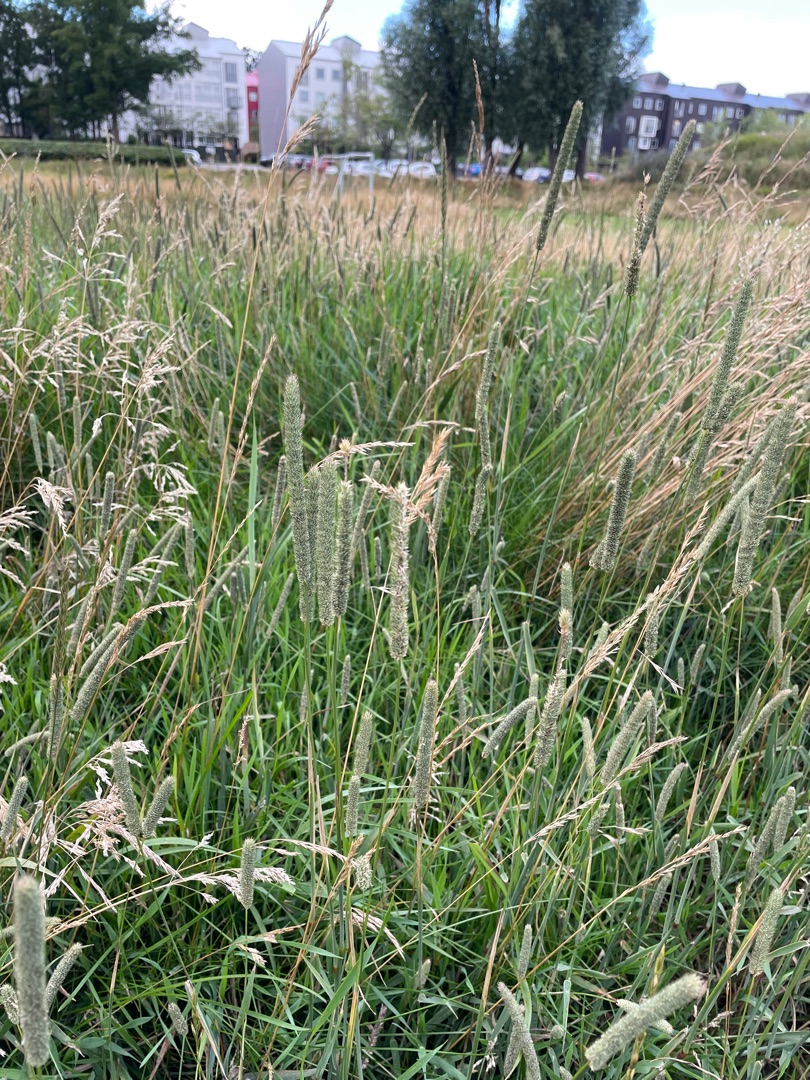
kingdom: Plantae
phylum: Tracheophyta
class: Liliopsida
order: Poales
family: Poaceae
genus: Phleum
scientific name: Phleum pratense
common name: Eng-rottehale
